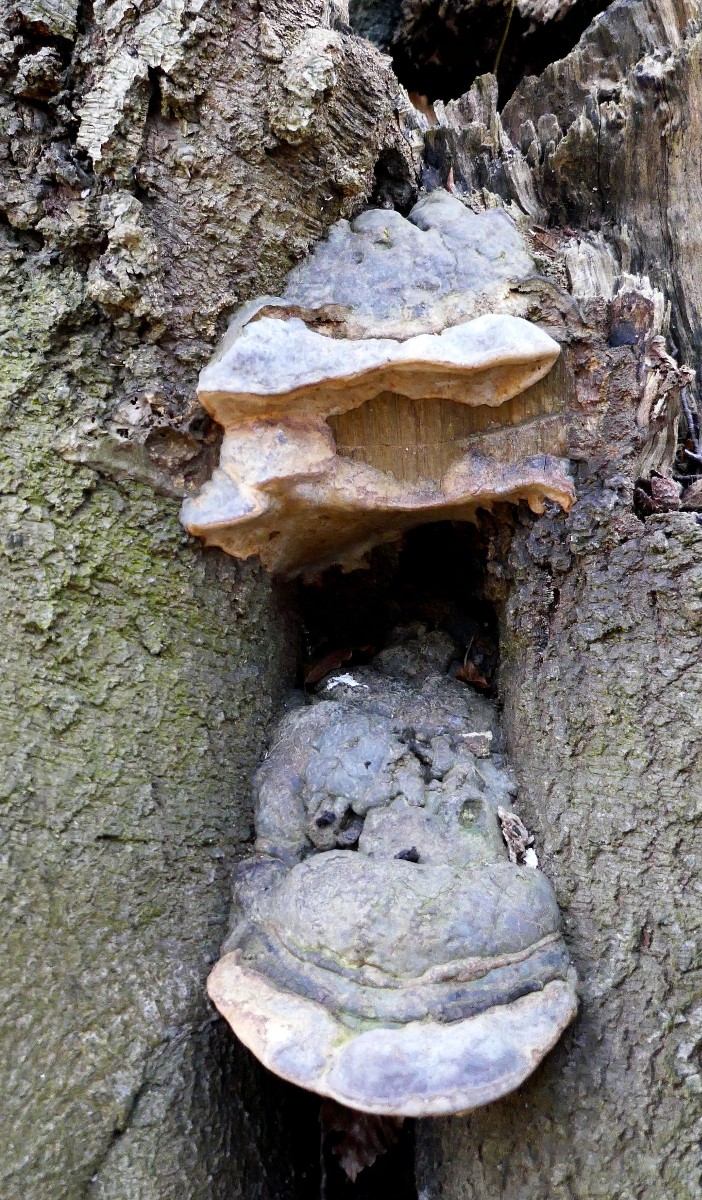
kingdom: Fungi
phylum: Basidiomycota
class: Agaricomycetes
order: Polyporales
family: Polyporaceae
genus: Ganoderma
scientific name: Ganoderma pfeifferi
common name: kobberrød lakporesvamp
